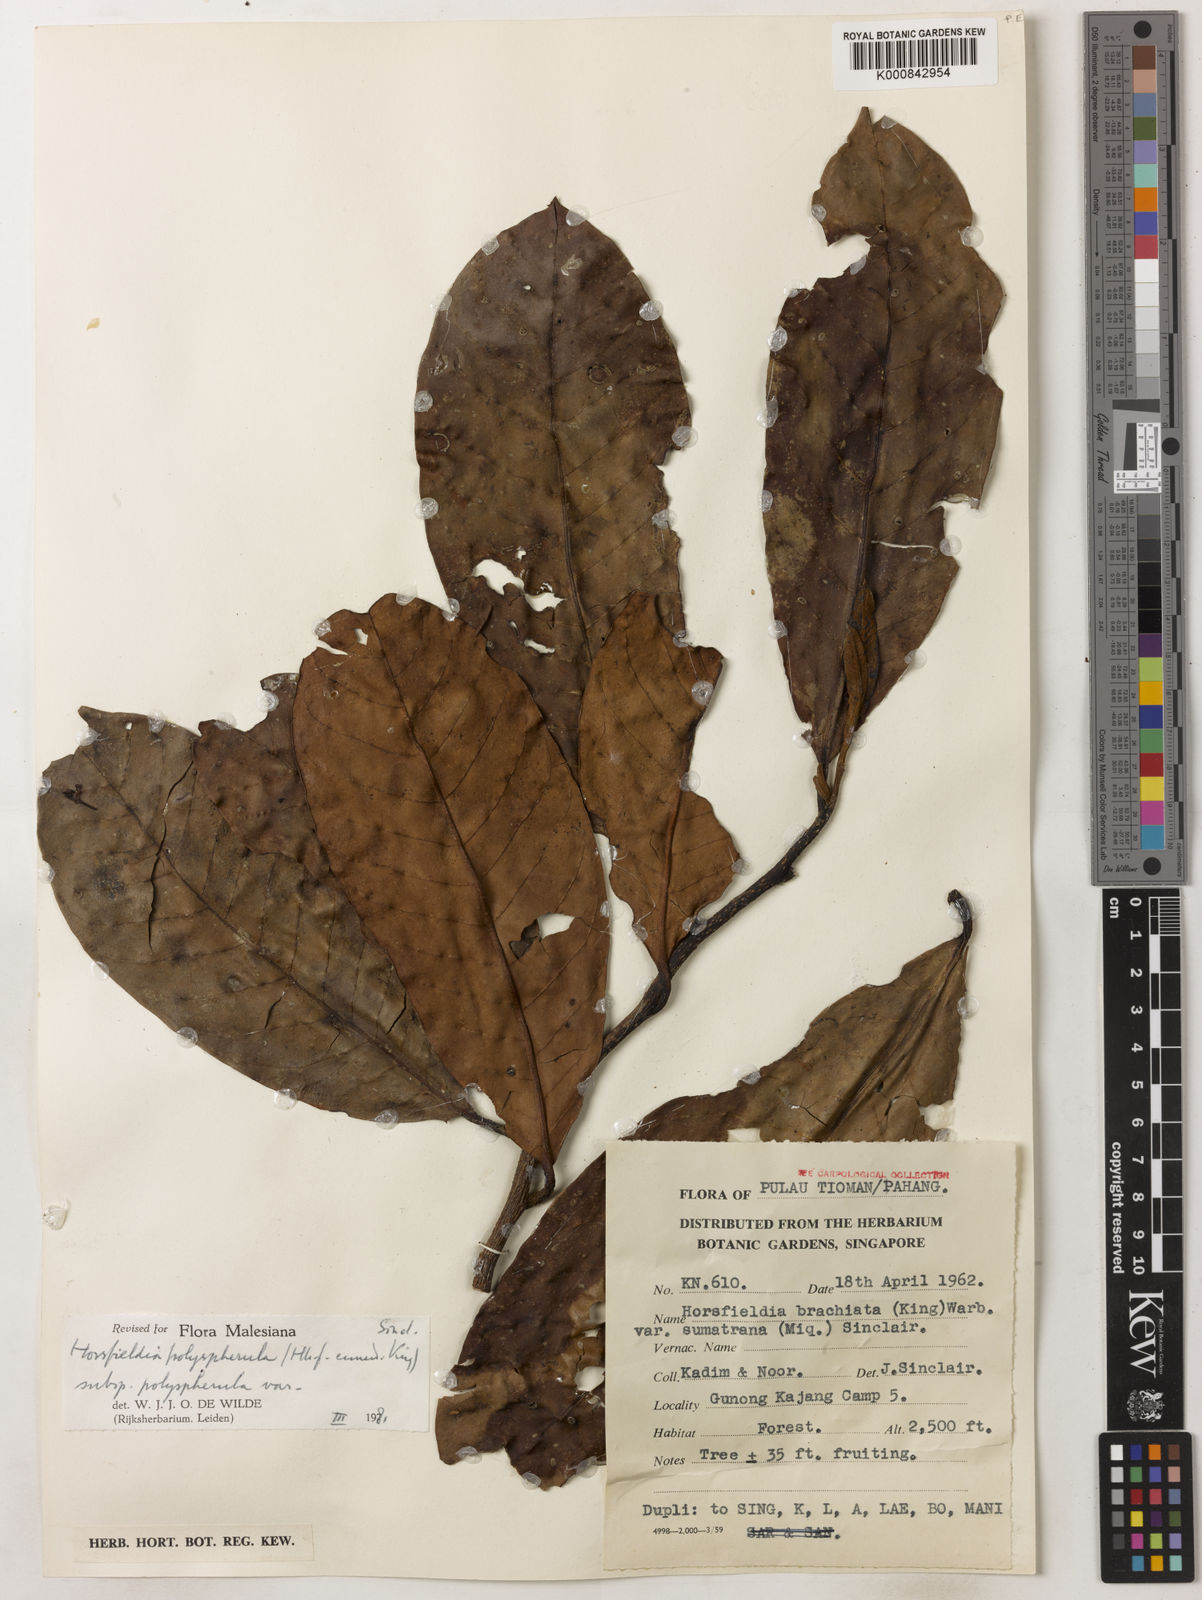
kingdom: Plantae
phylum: Tracheophyta
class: Magnoliopsida
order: Magnoliales
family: Myristicaceae
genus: Horsfieldia
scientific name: Horsfieldia
